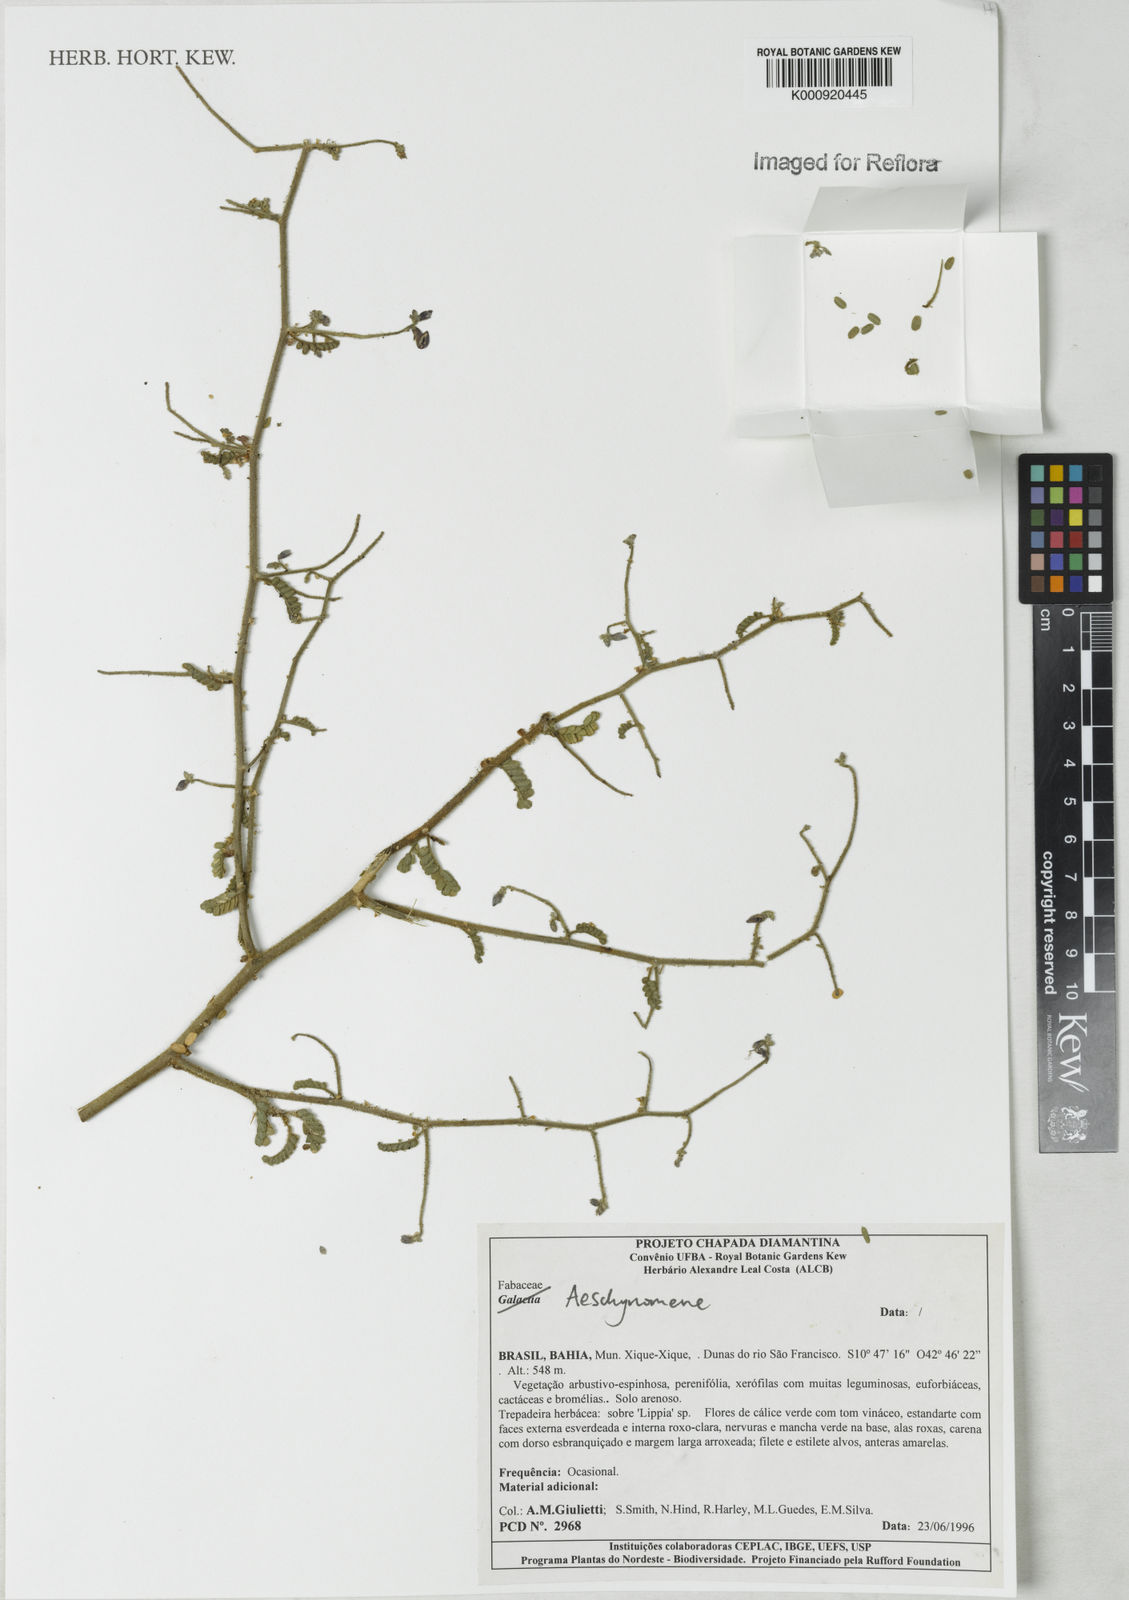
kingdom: Plantae
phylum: Tracheophyta
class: Magnoliopsida
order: Fabales
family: Fabaceae
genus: Aeschynomene
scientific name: Aeschynomene
